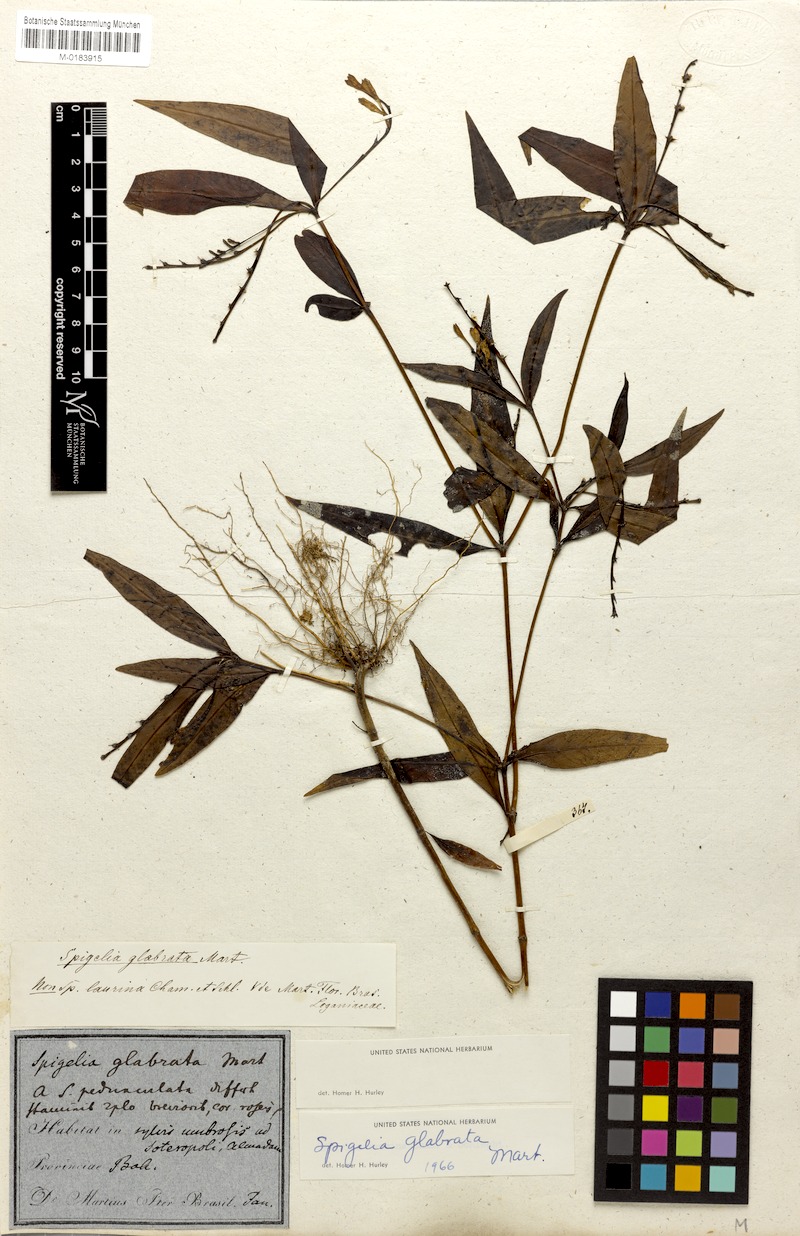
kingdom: Plantae
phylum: Tracheophyta
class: Magnoliopsida
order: Gentianales
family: Loganiaceae
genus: Spigelia
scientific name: Spigelia glabrata
